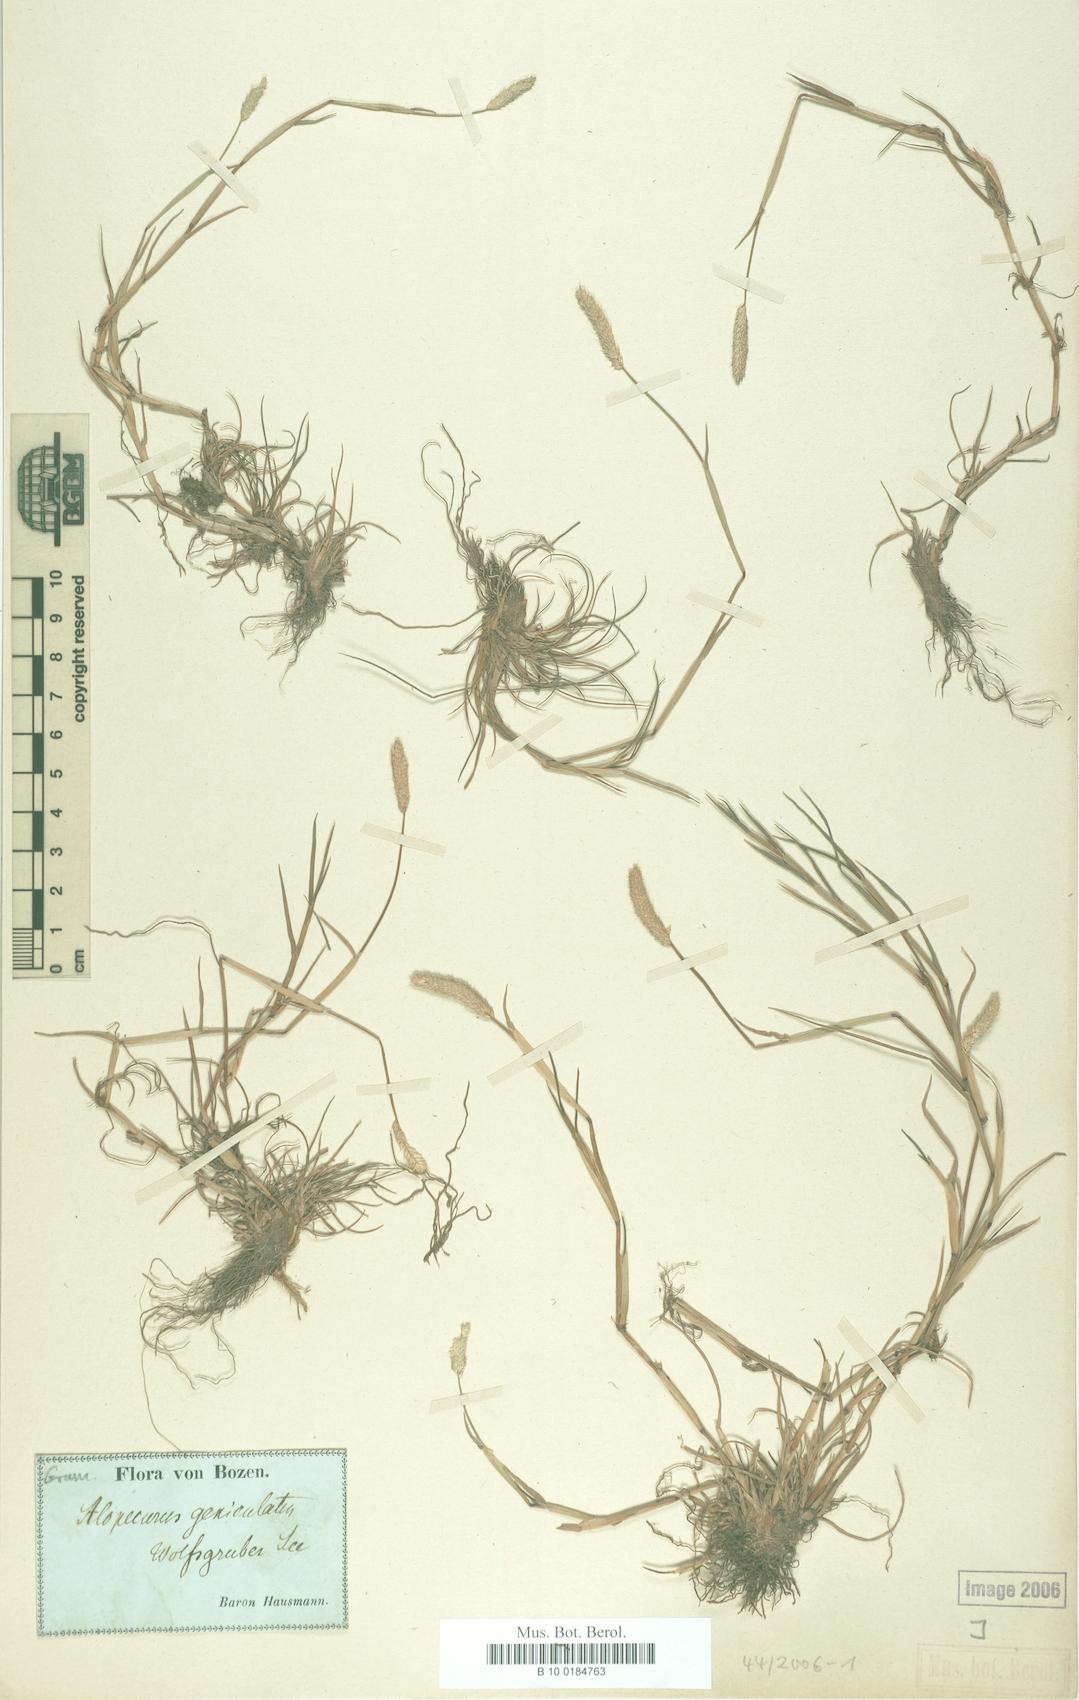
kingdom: Plantae
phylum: Tracheophyta
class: Liliopsida
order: Poales
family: Poaceae
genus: Alopecurus
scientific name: Alopecurus geniculatus
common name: Water foxtail
